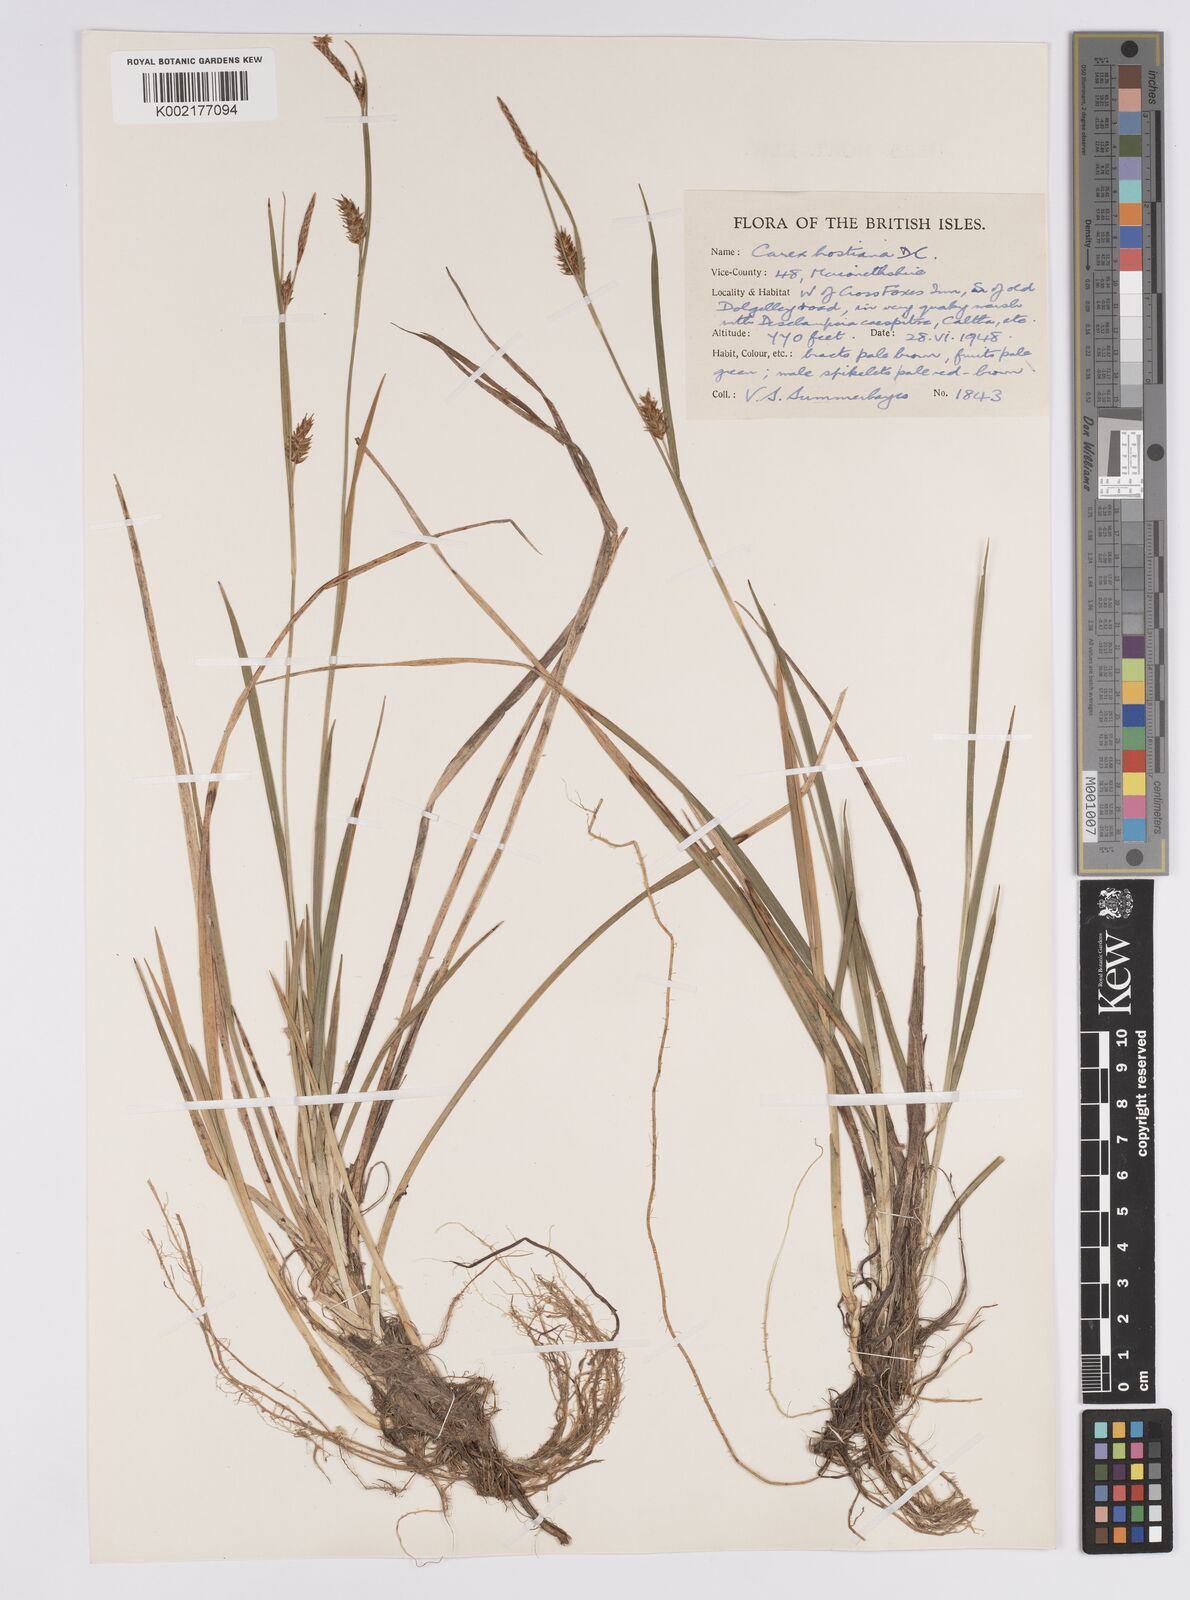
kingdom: Plantae
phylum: Tracheophyta
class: Liliopsida
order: Poales
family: Cyperaceae
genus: Carex
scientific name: Carex hostiana
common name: Tawny sedge
